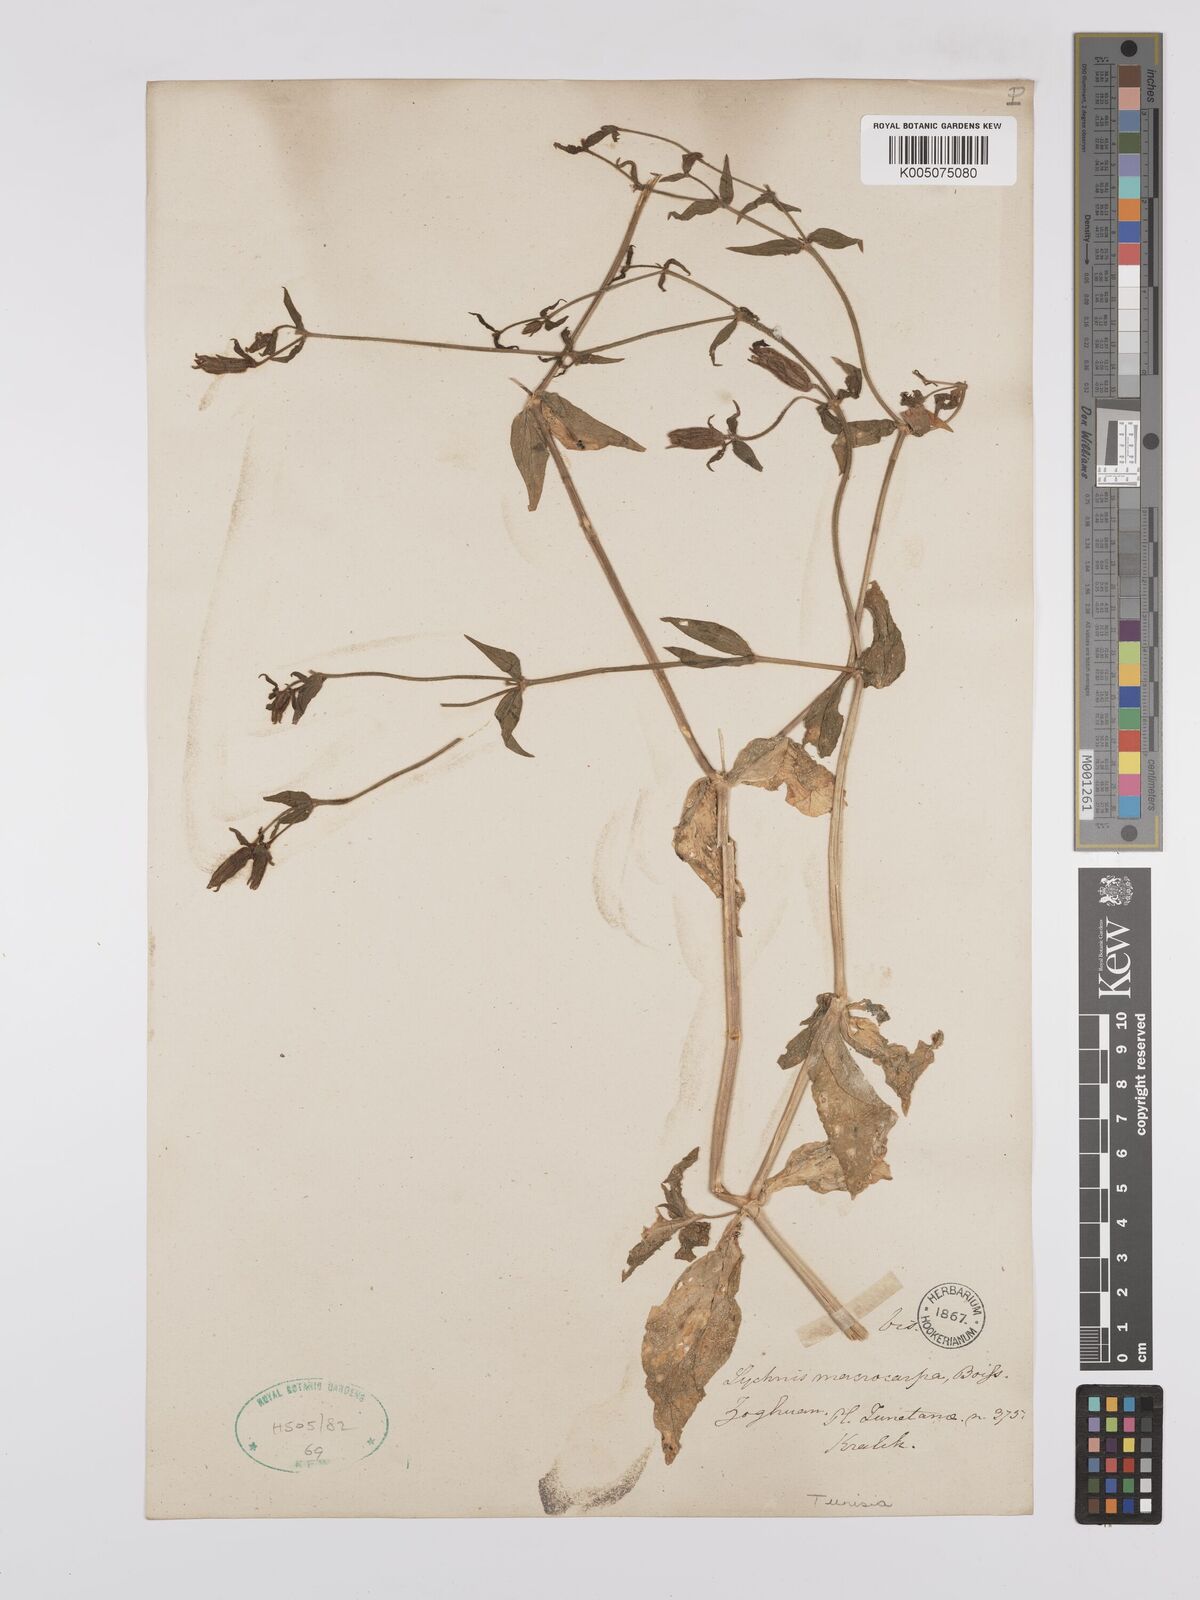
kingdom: Plantae
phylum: Tracheophyta
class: Magnoliopsida
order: Caryophyllales
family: Caryophyllaceae
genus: Silene
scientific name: Silene
